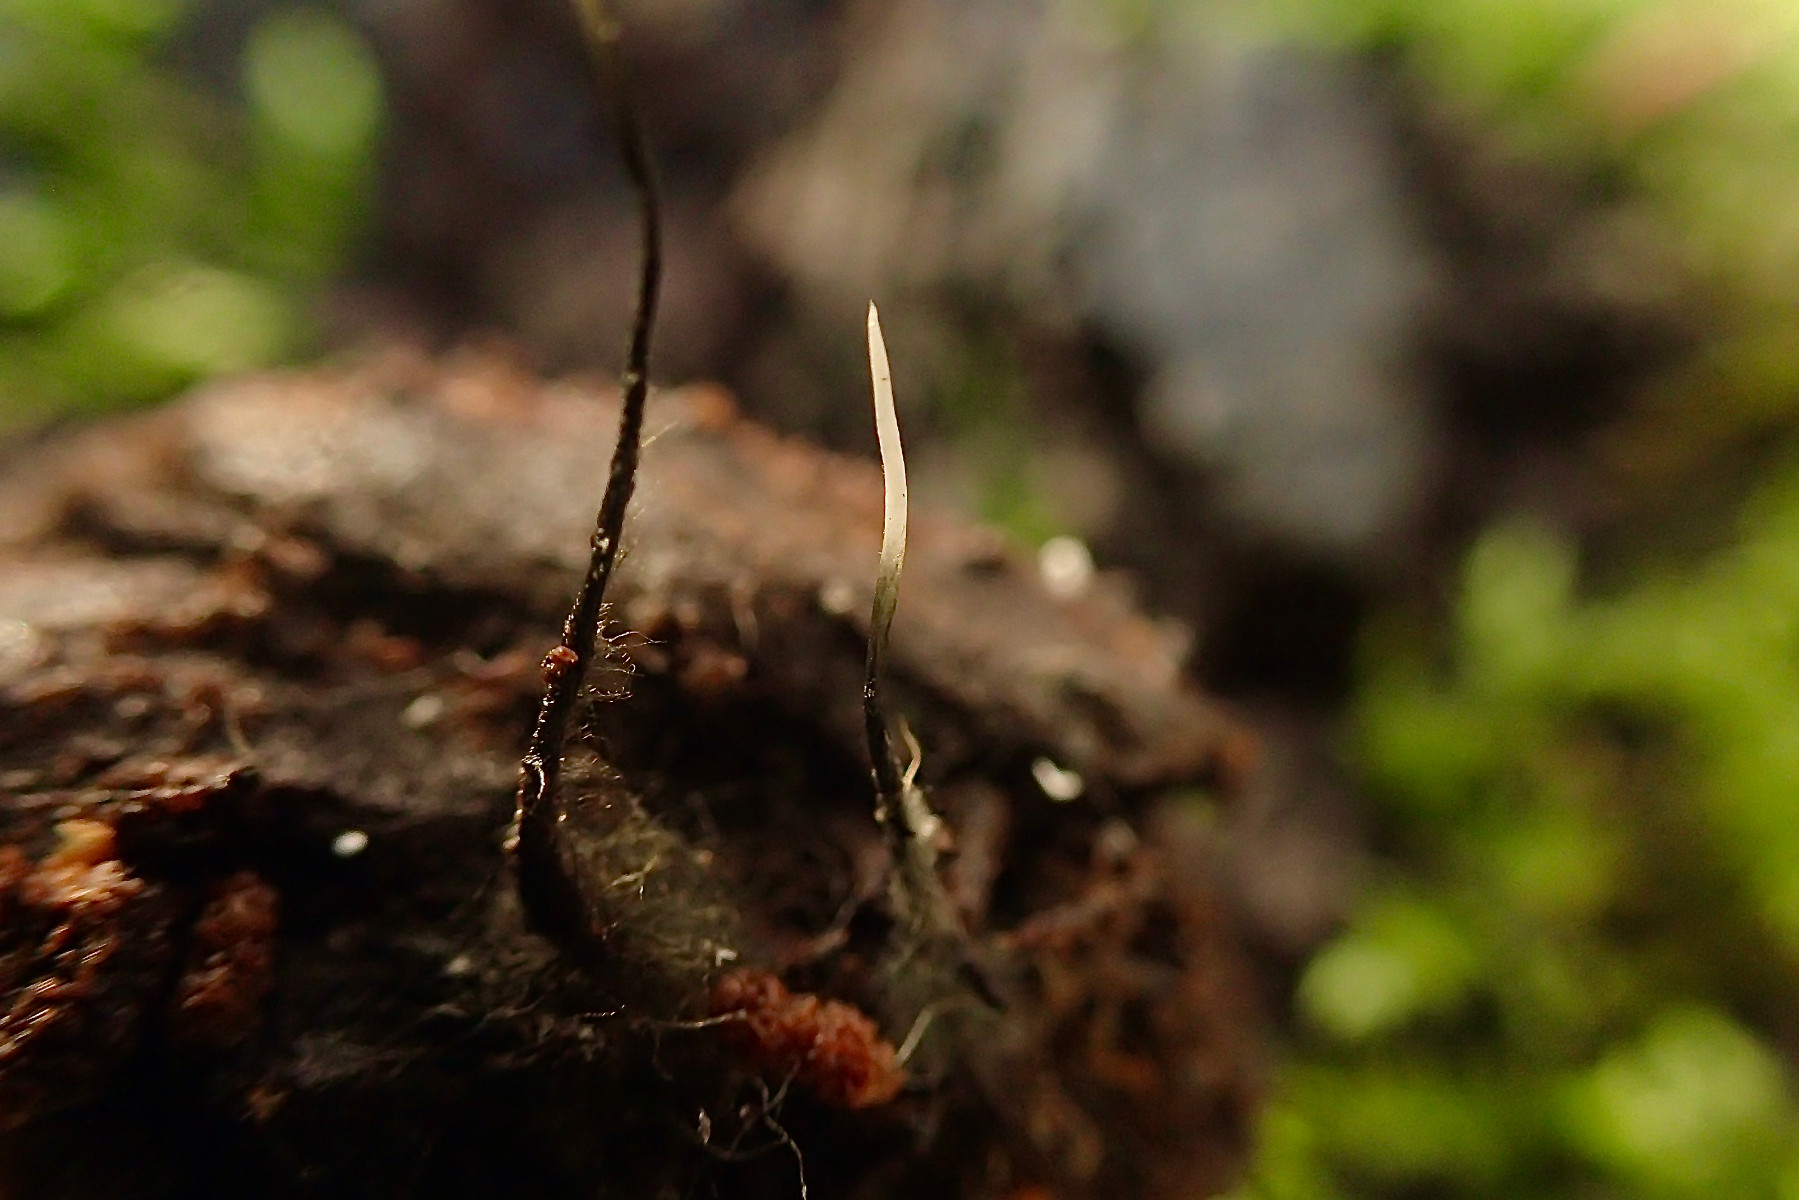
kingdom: Fungi
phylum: Ascomycota
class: Sordariomycetes
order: Xylariales
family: Xylariaceae
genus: Xylaria
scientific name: Xylaria carpophila
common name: bogskål-stødsvamp
